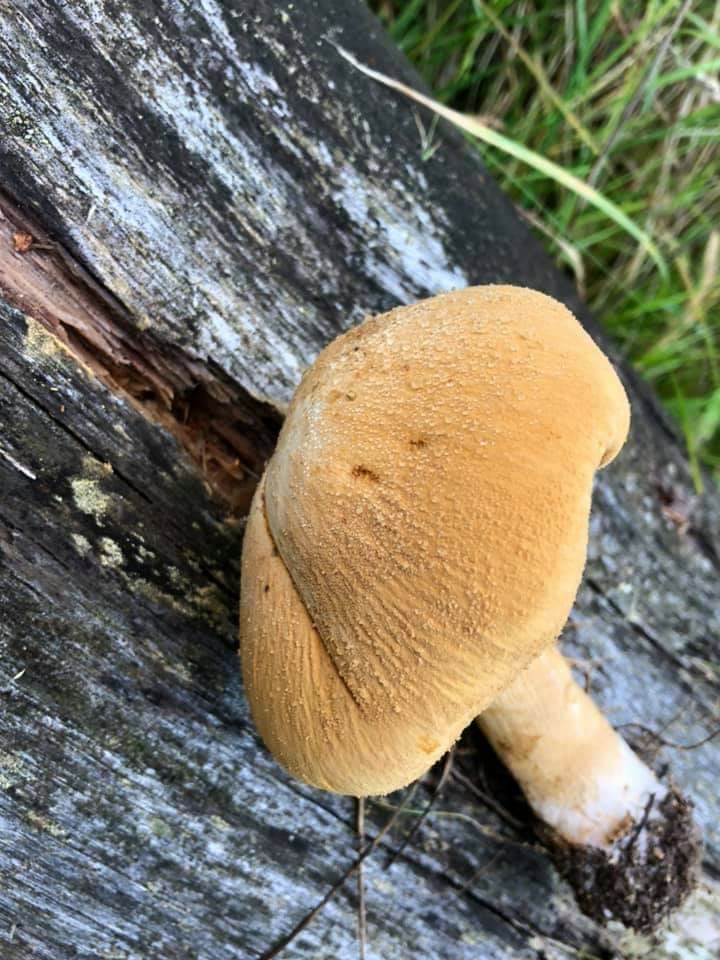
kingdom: Fungi
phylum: Basidiomycota
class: Agaricomycetes
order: Agaricales
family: Tricholomataceae
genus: Phaeolepiota
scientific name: Phaeolepiota aurea
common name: gyldenhat
